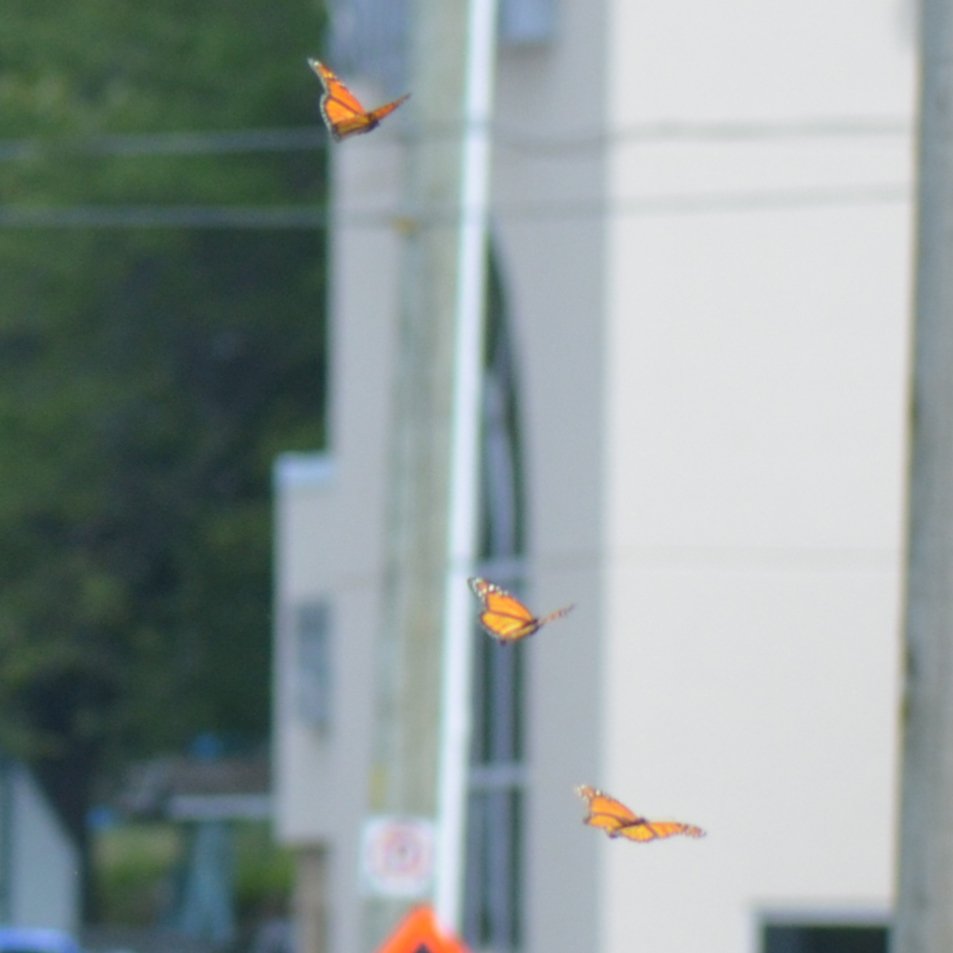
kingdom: Animalia
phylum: Arthropoda
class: Insecta
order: Lepidoptera
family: Nymphalidae
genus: Danaus
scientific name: Danaus plexippus
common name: Monarch
